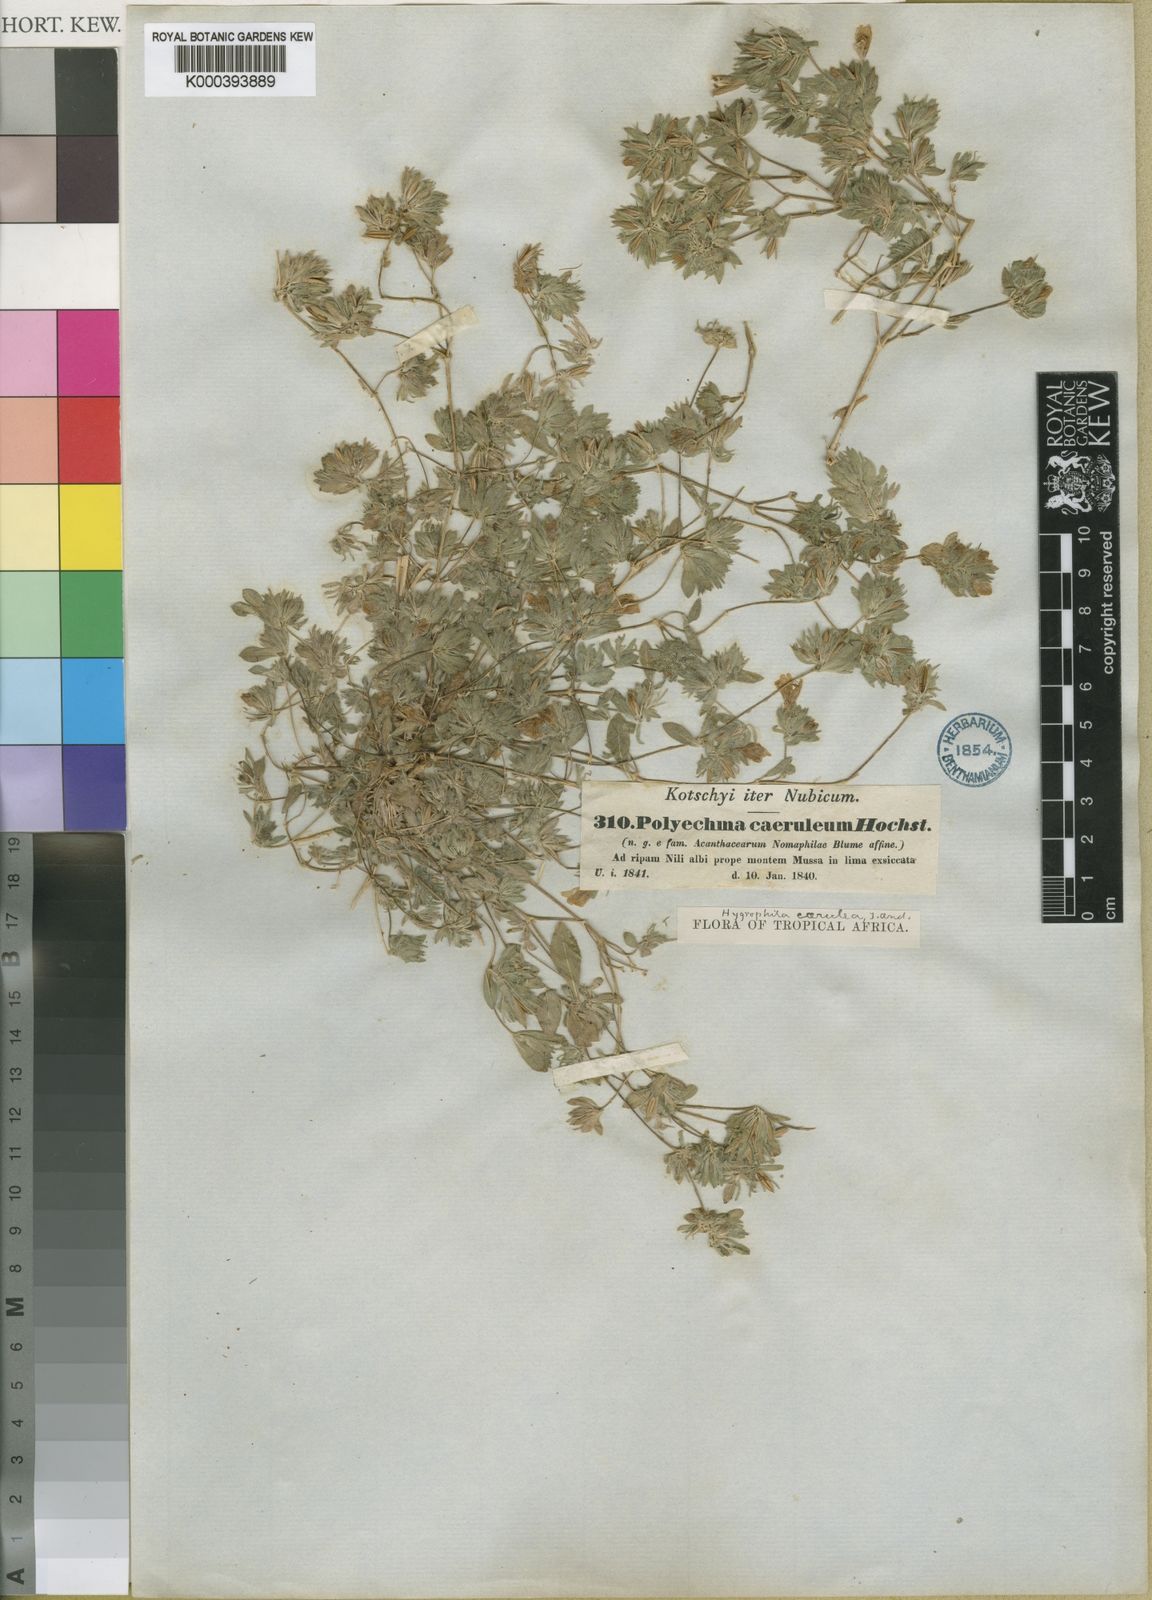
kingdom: Plantae
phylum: Tracheophyta
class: Magnoliopsida
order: Lamiales
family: Acanthaceae
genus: Hygrophila
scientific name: Hygrophila caerulea
